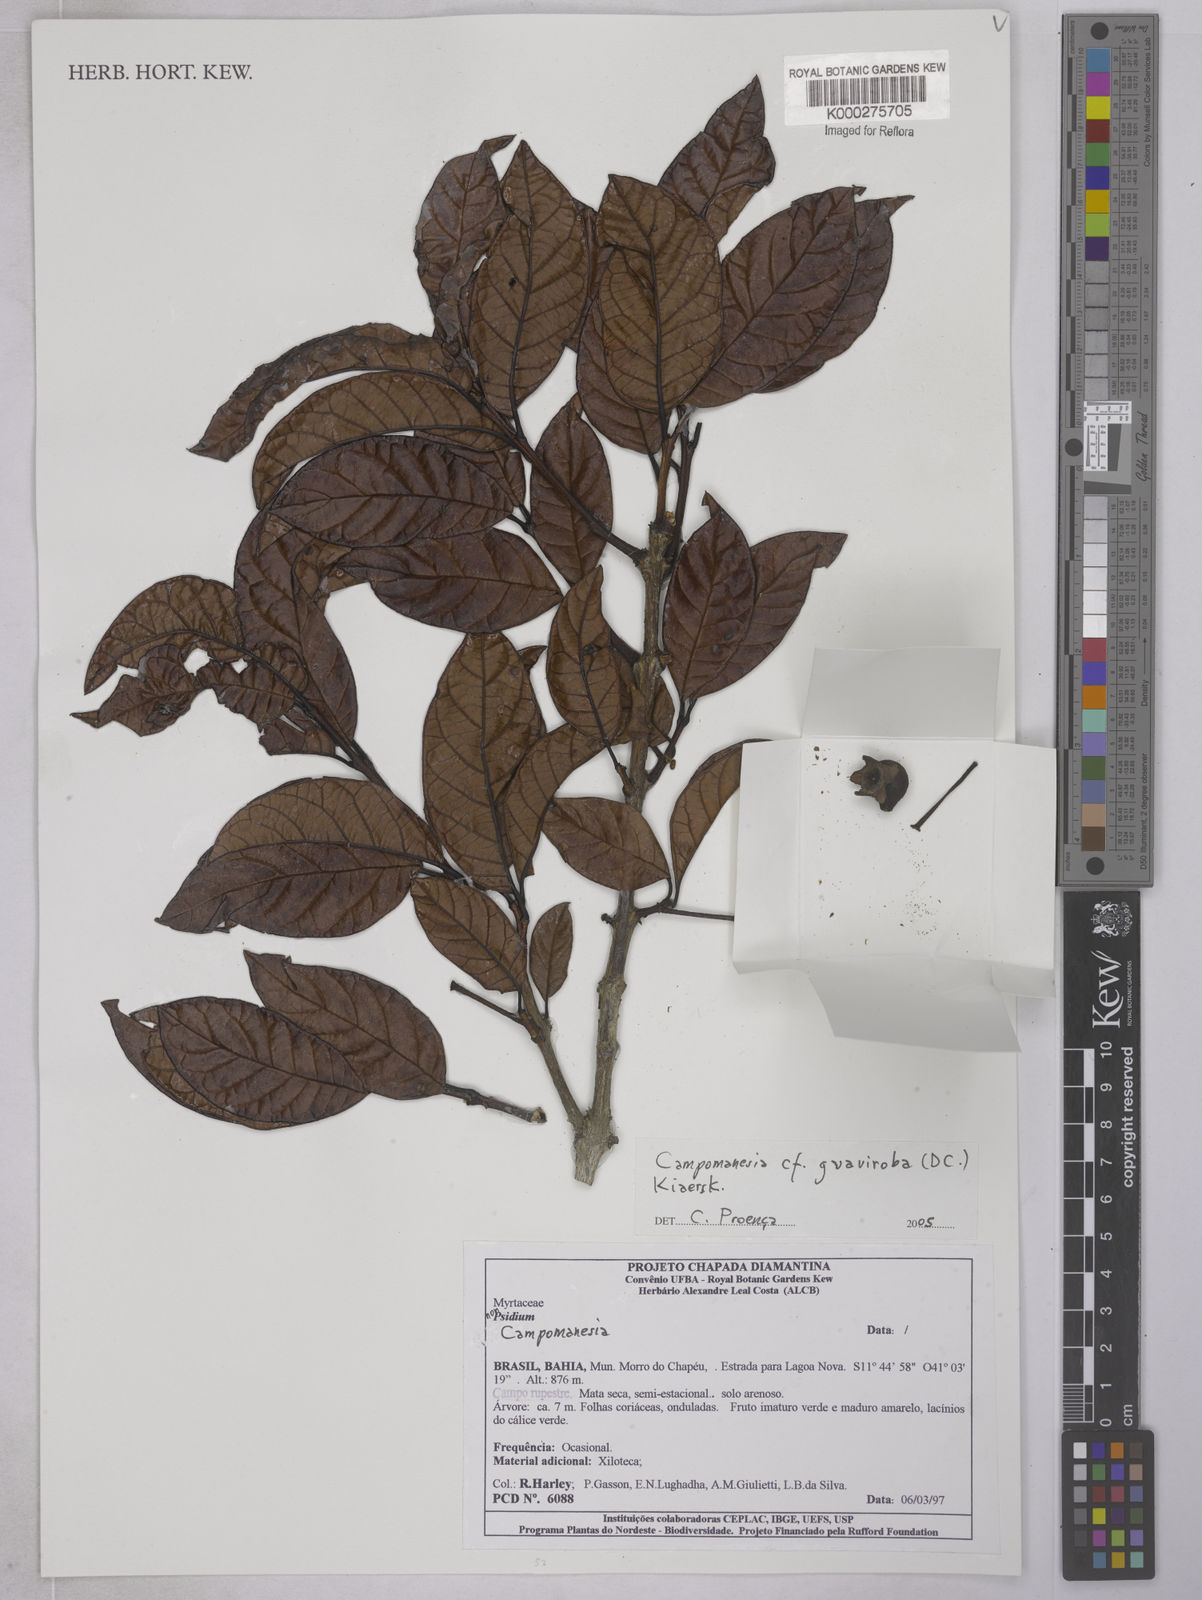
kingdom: Plantae
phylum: Tracheophyta
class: Magnoliopsida
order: Myrtales
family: Myrtaceae
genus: Psidium
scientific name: Psidium
